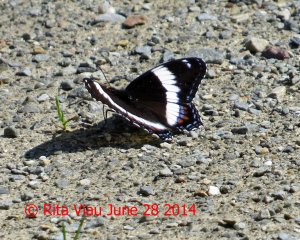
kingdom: Animalia
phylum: Arthropoda
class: Insecta
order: Lepidoptera
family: Nymphalidae
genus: Limenitis
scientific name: Limenitis arthemis
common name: Red-spotted Admiral
